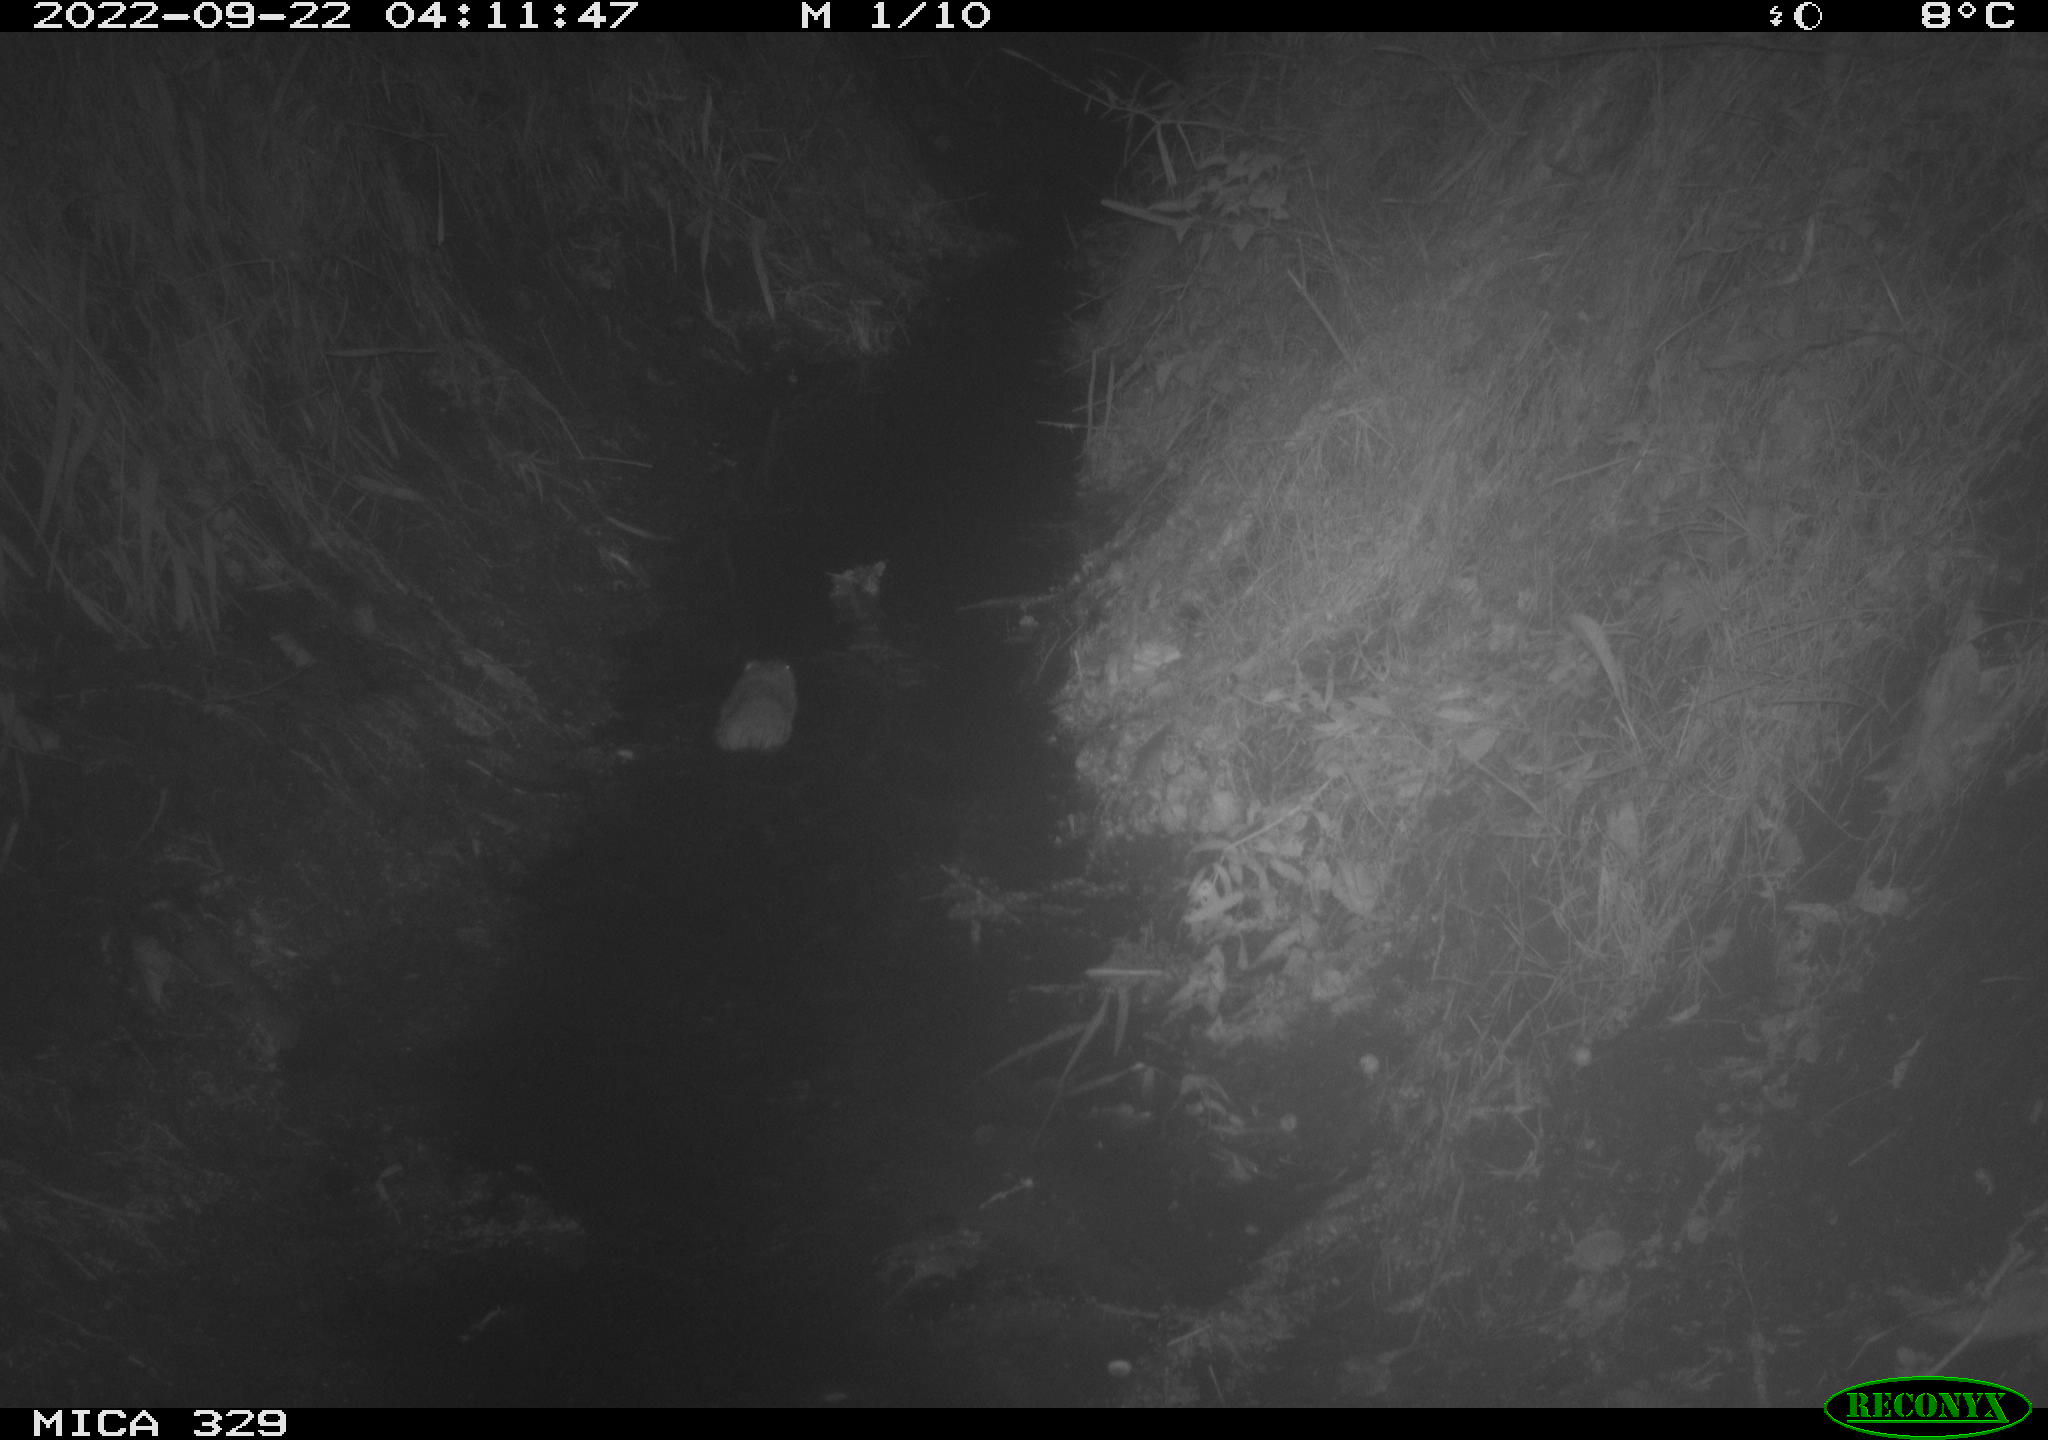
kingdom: Animalia
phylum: Chordata
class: Mammalia
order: Rodentia
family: Cricetidae
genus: Ondatra
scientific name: Ondatra zibethicus
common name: Muskrat
